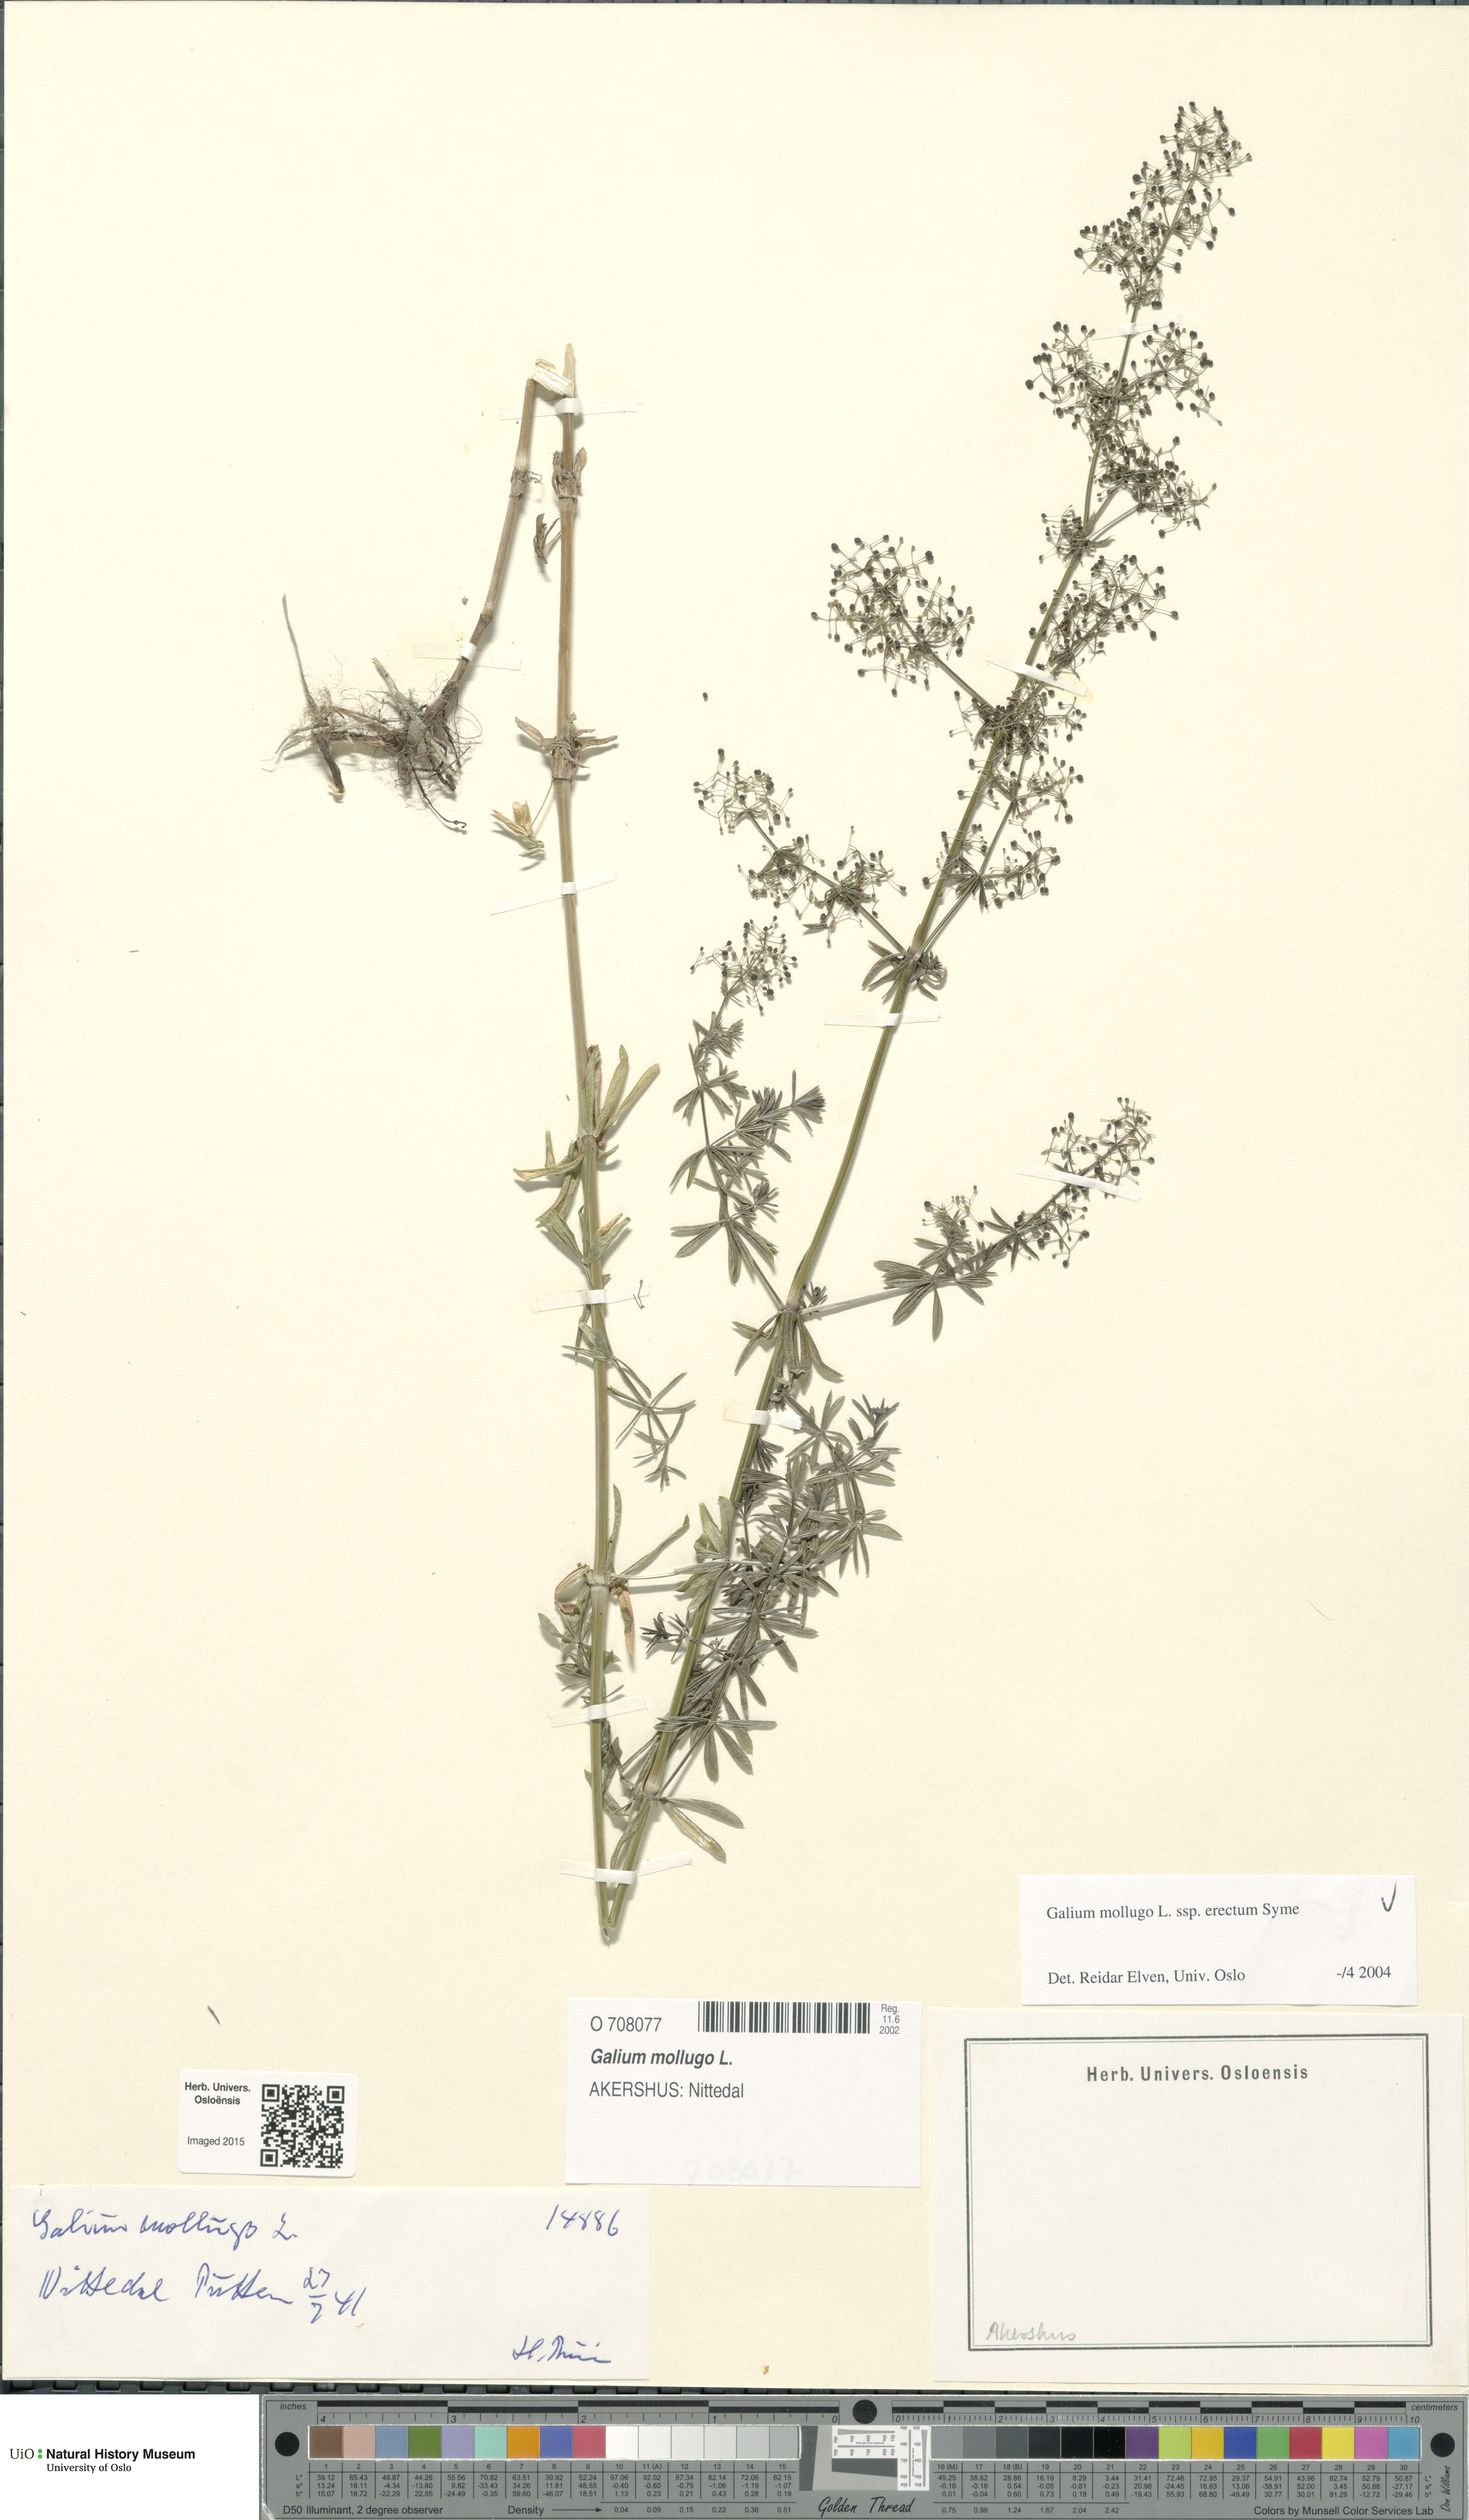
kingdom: Plantae
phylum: Tracheophyta
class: Magnoliopsida
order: Gentianales
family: Rubiaceae
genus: Galium
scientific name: Galium album
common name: White bedstraw
